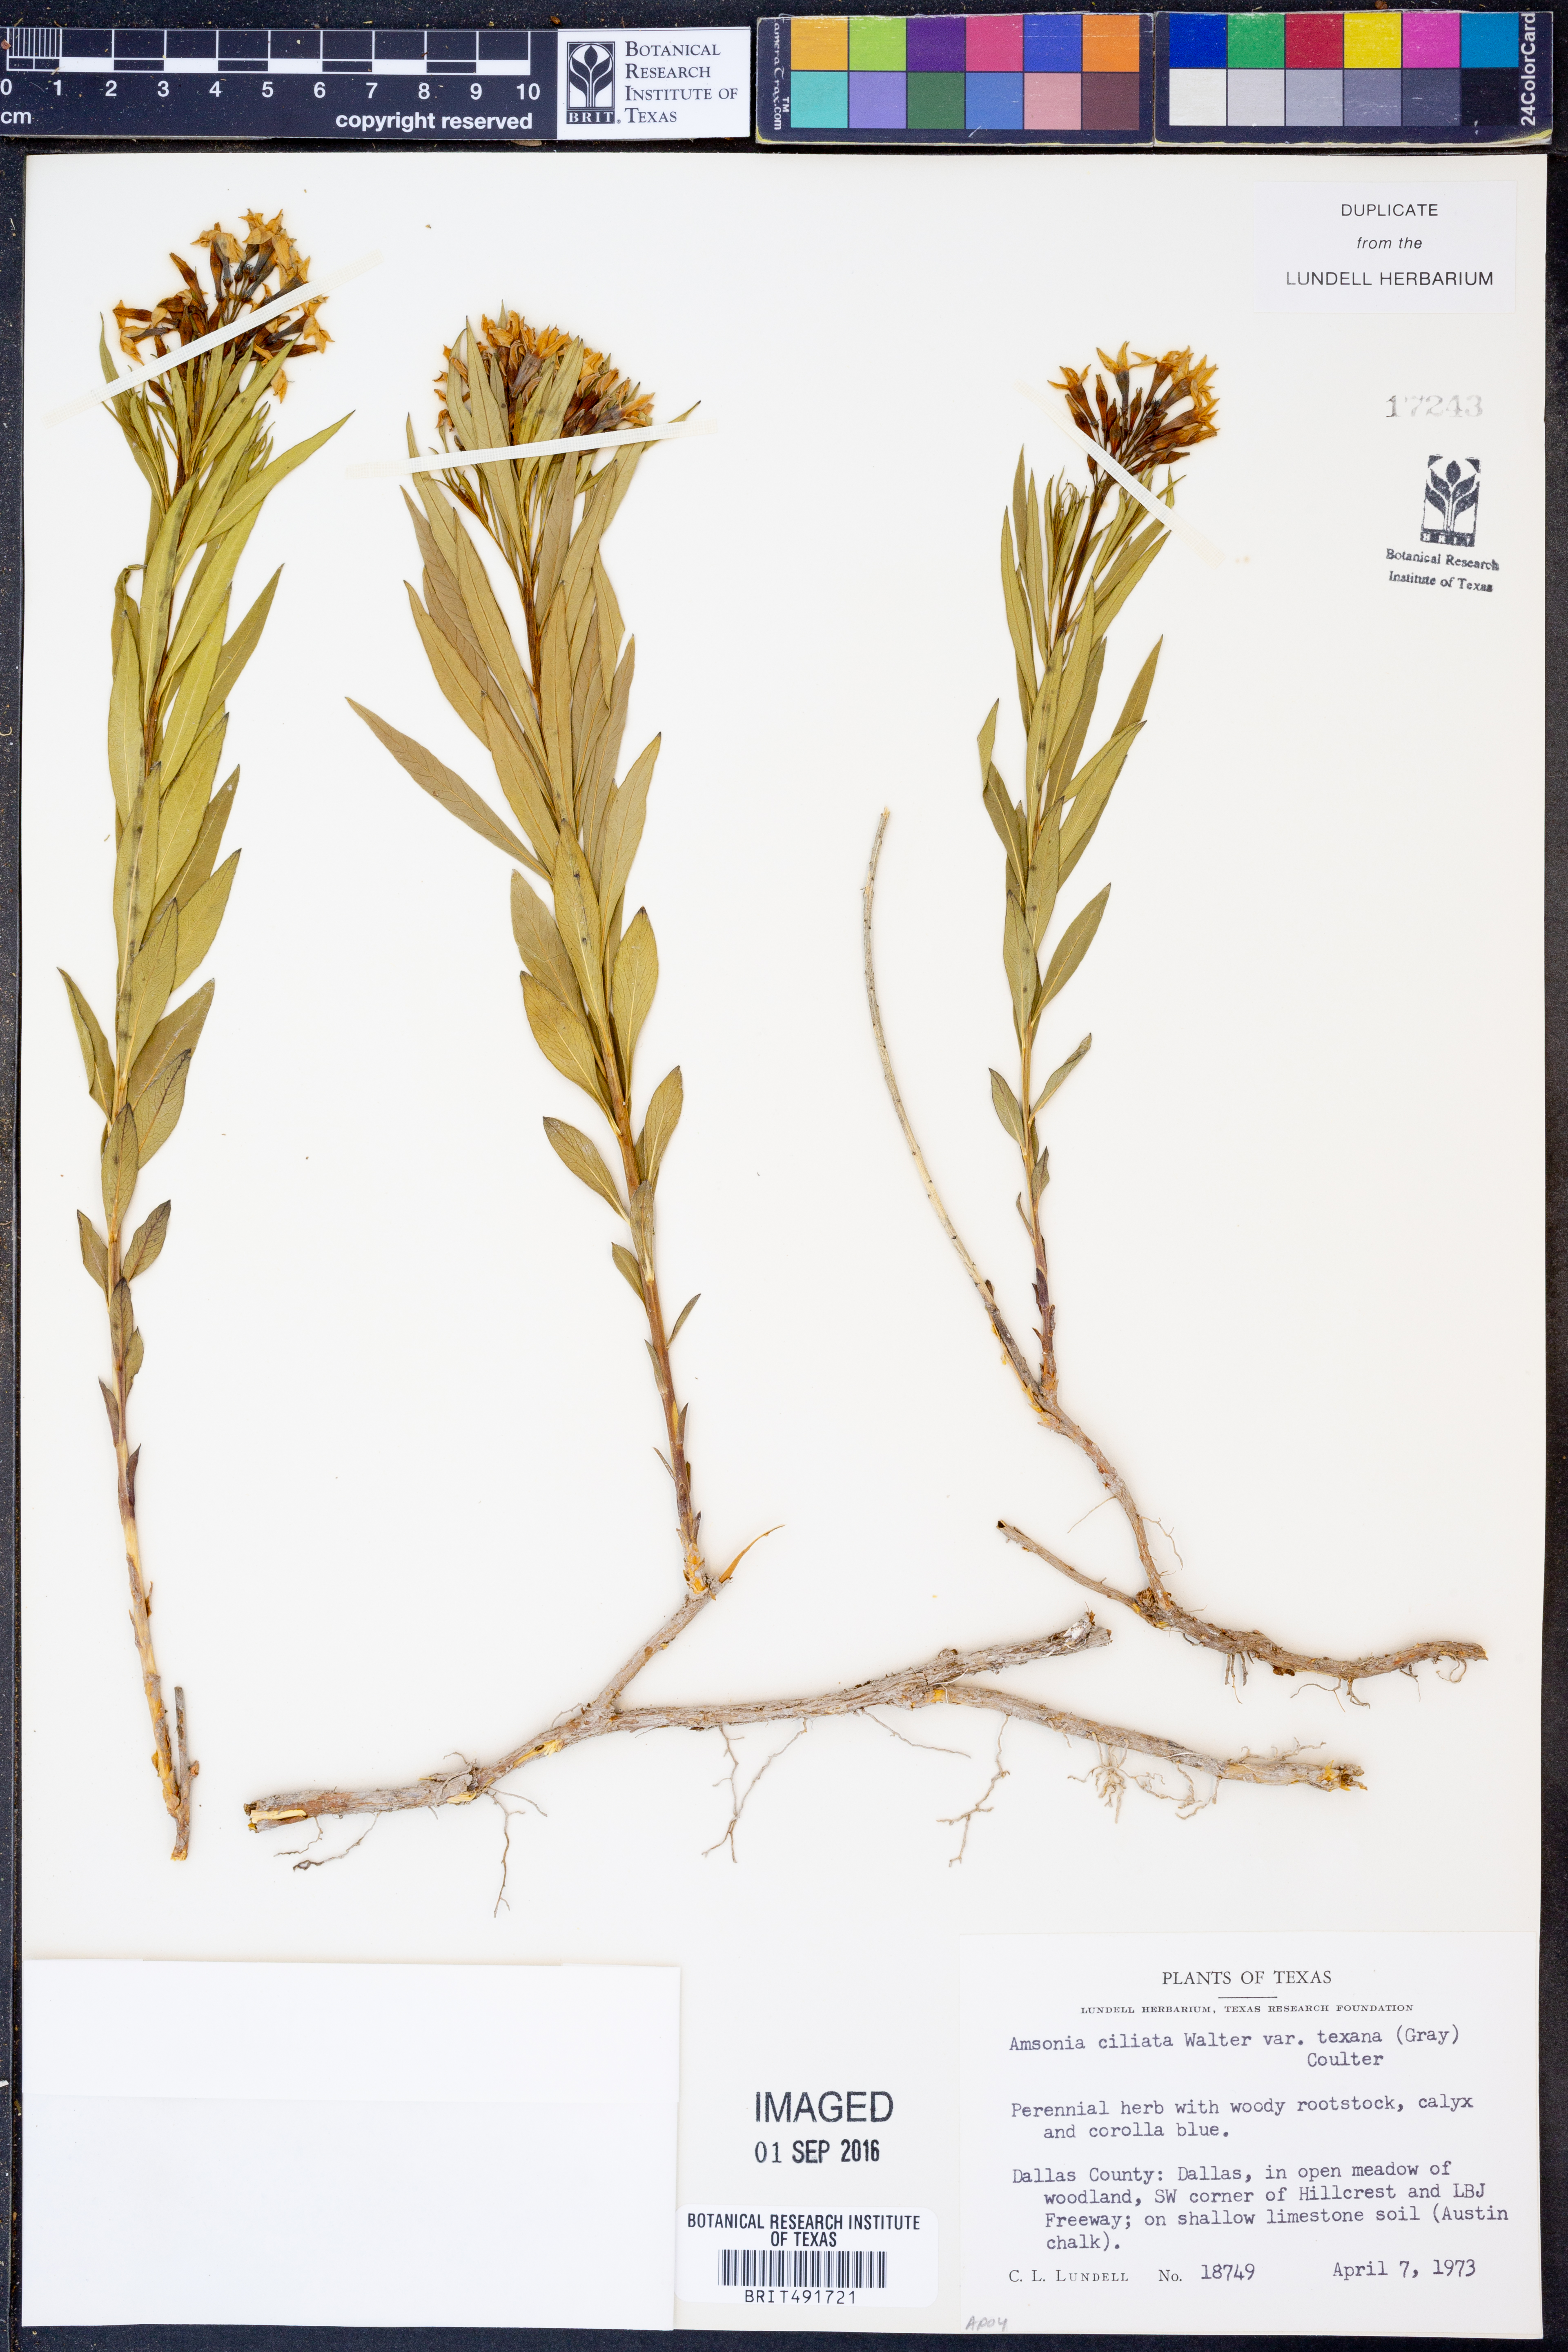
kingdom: Plantae
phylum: Tracheophyta
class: Magnoliopsida
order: Gentianales
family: Apocynaceae
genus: Amsonia
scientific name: Amsonia ciliata
